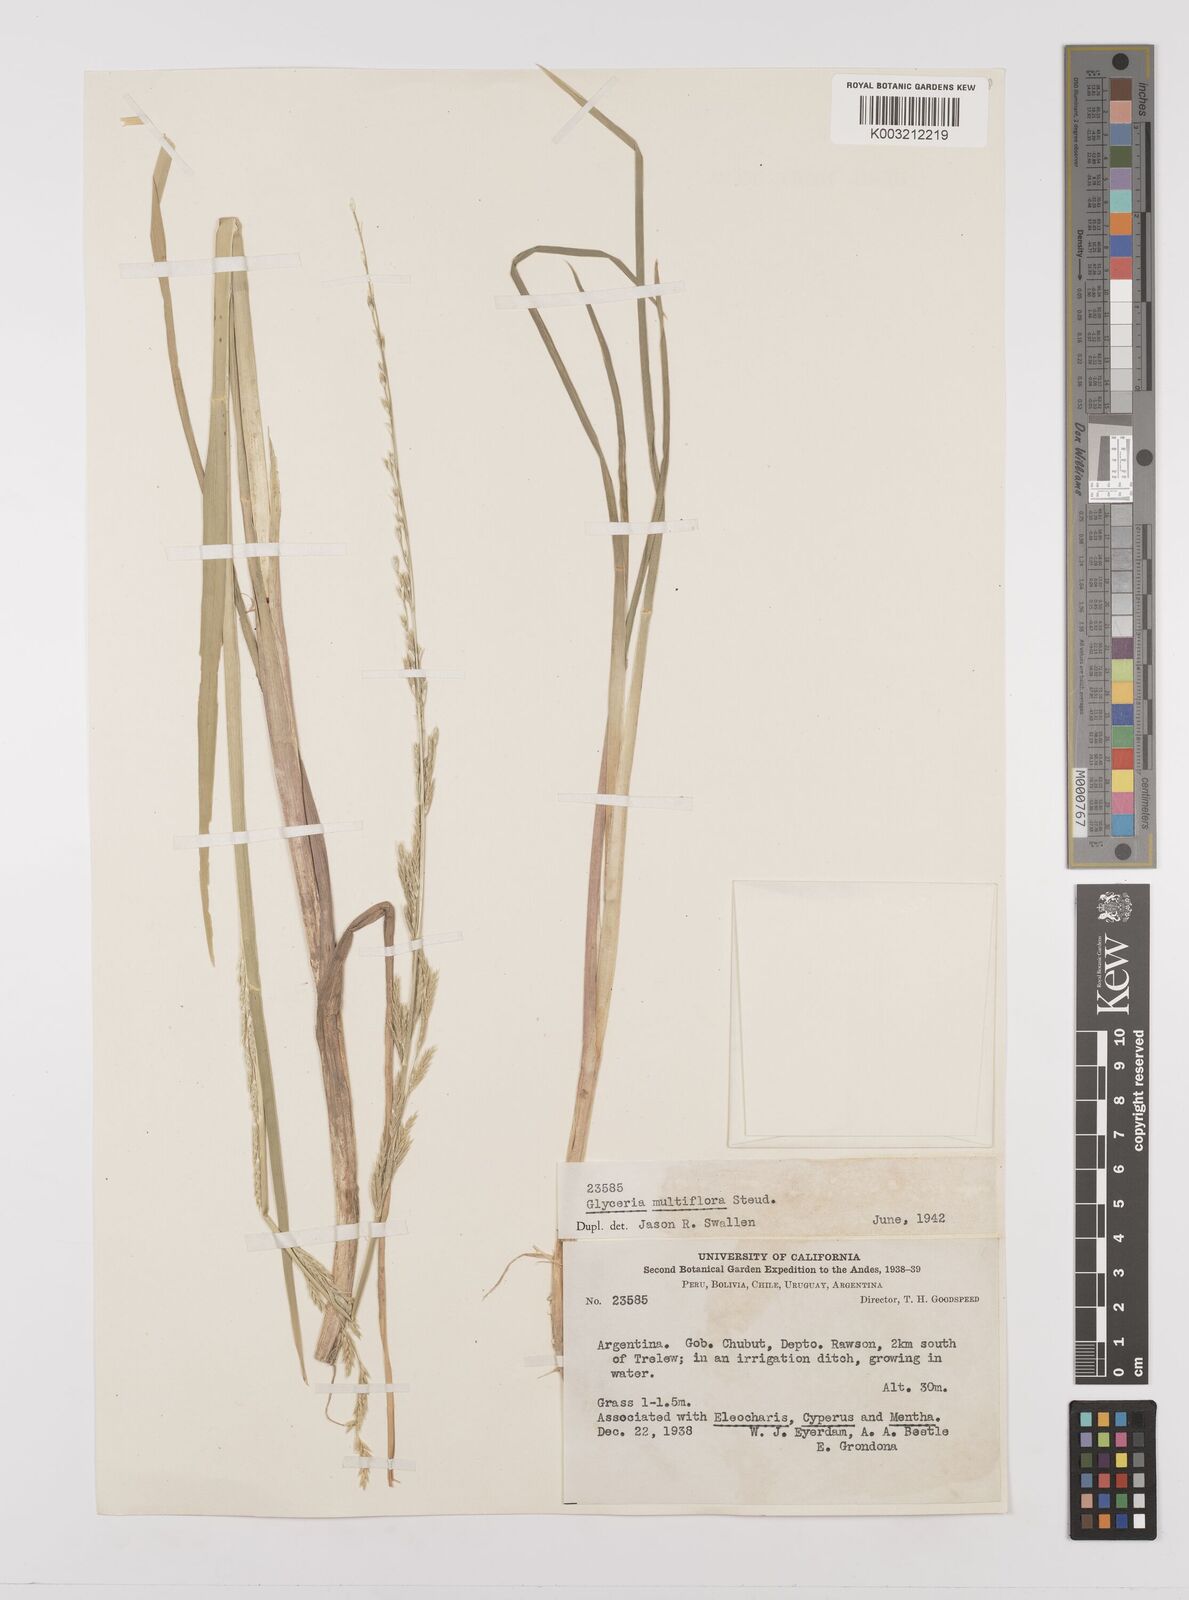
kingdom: Plantae
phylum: Tracheophyta
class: Liliopsida
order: Poales
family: Poaceae
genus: Glyceria
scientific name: Glyceria multiflora
